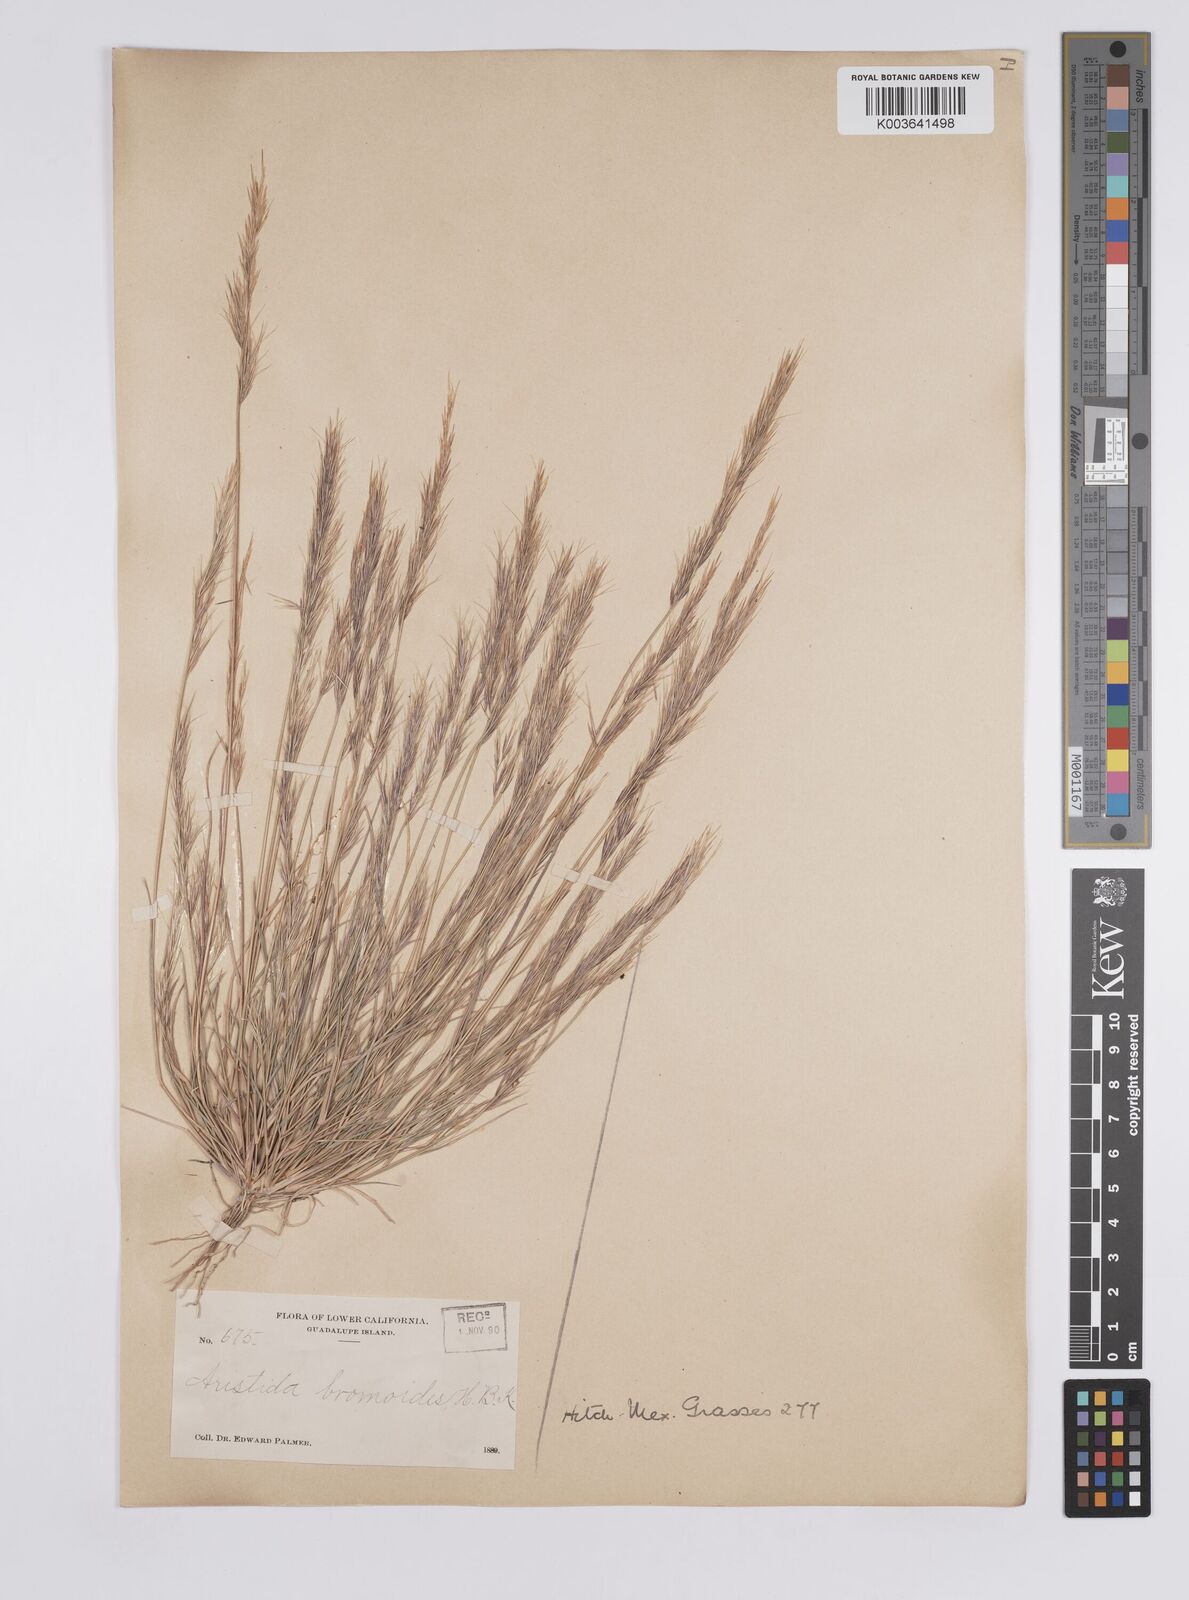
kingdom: Plantae
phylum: Tracheophyta
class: Liliopsida
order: Poales
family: Poaceae
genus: Aristida
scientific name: Aristida adscensionis
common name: Sixweeks threeawn
